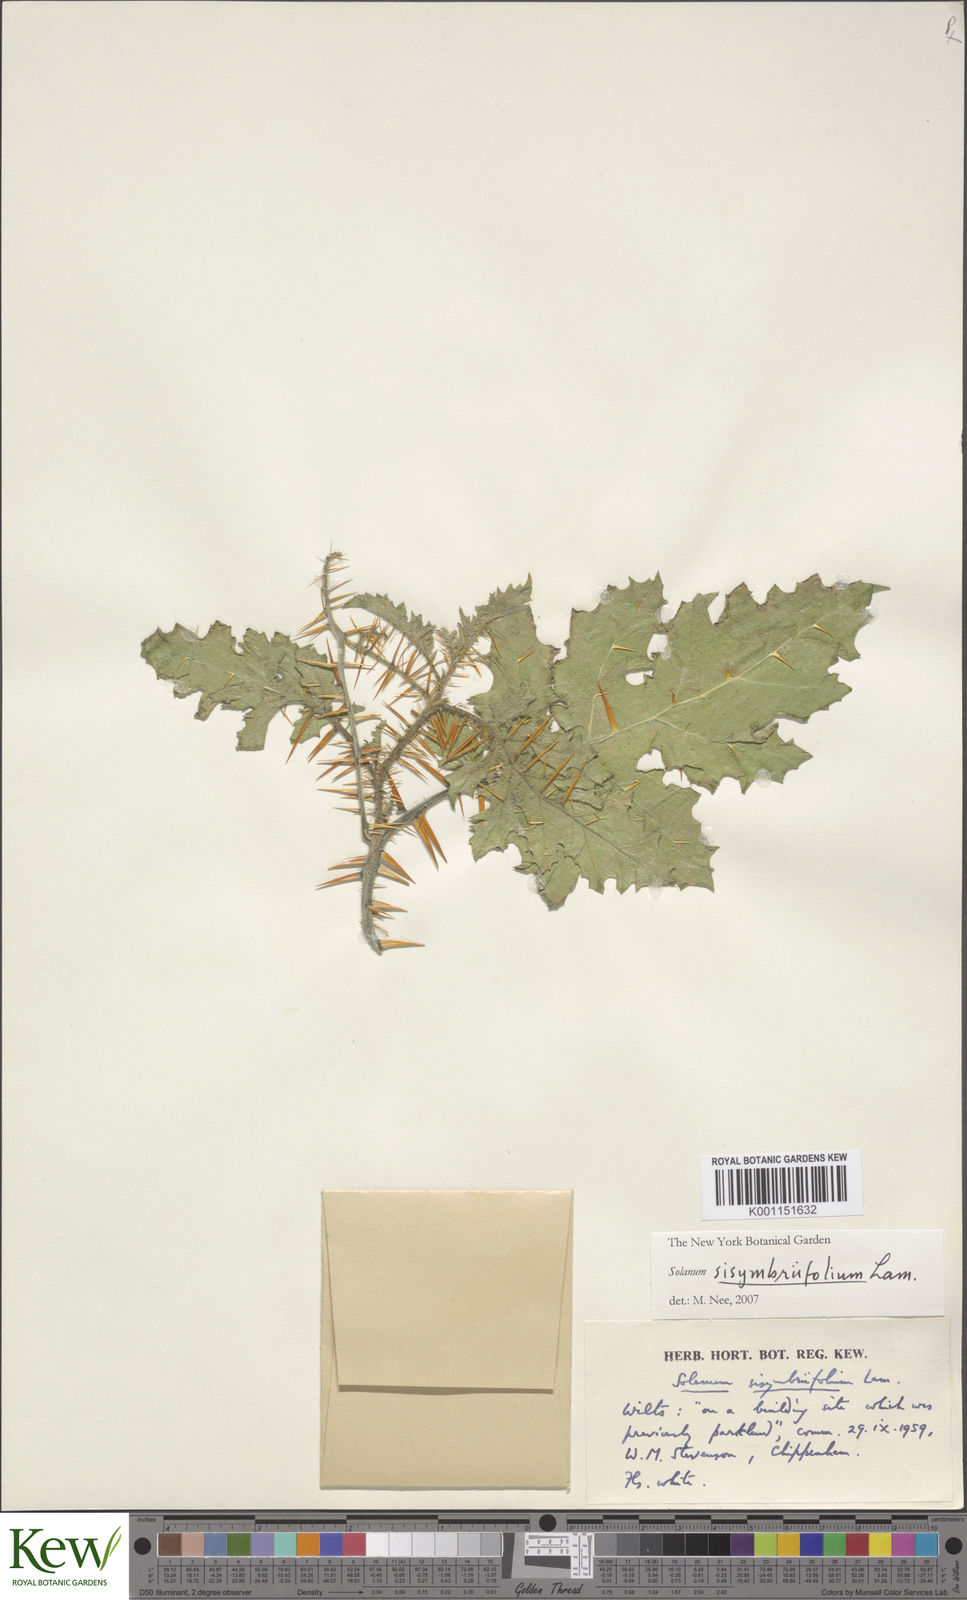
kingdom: Plantae
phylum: Tracheophyta
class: Magnoliopsida
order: Solanales
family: Solanaceae
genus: Solanum
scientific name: Solanum sisymbriifolium
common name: Red buffalo-bur
